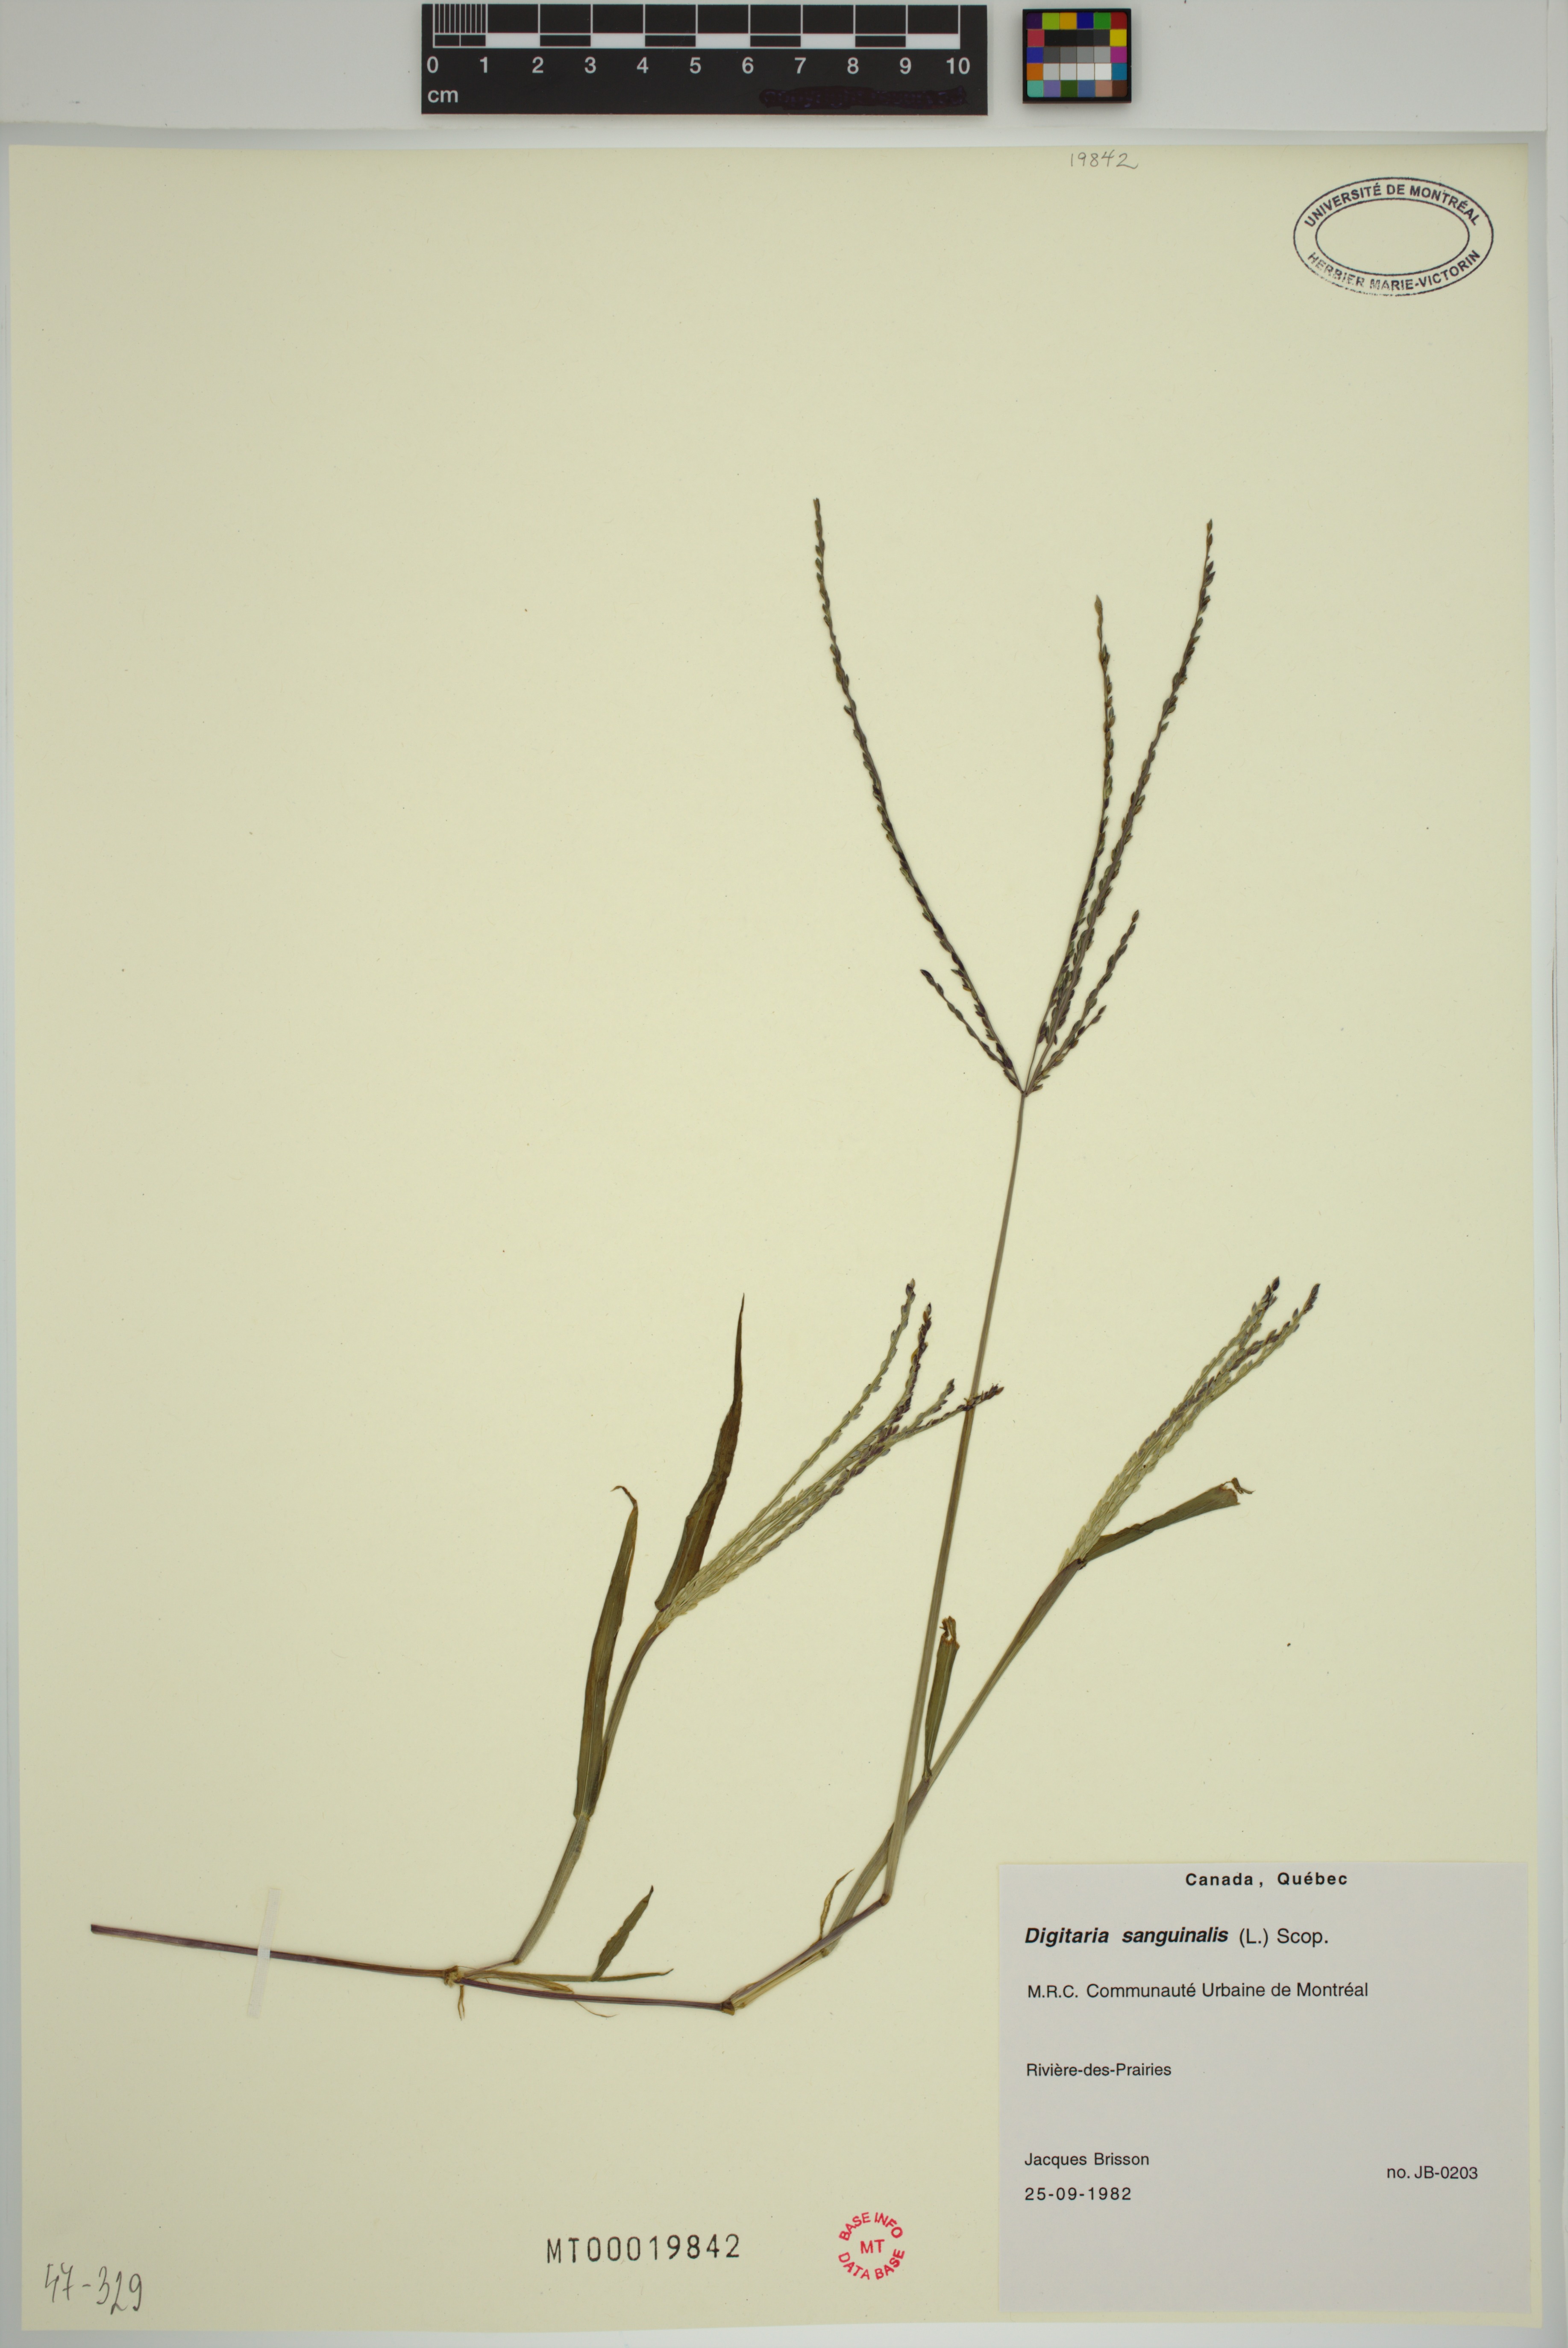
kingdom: Plantae
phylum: Tracheophyta
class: Liliopsida
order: Poales
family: Poaceae
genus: Digitaria
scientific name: Digitaria sanguinalis
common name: Hairy crabgrass
